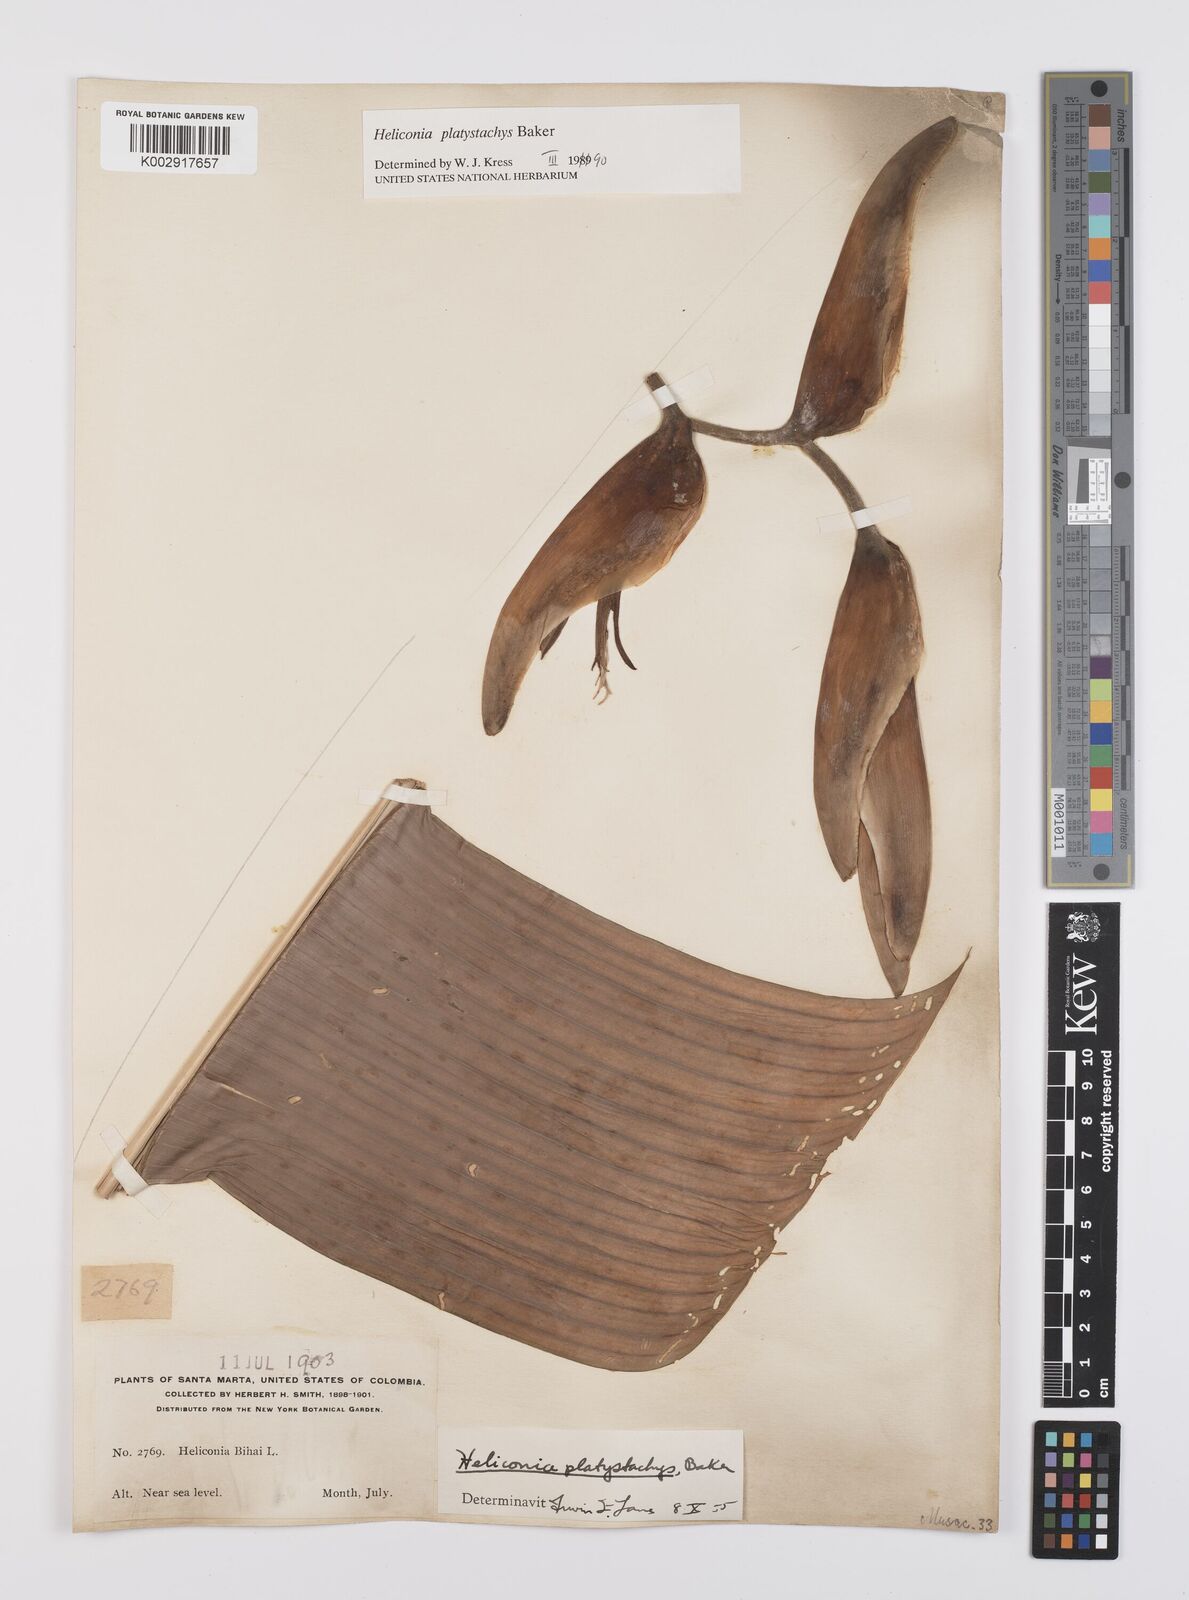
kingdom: Plantae
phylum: Tracheophyta
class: Liliopsida
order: Zingiberales
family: Heliconiaceae
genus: Heliconia
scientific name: Heliconia platystachys
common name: False bird of paradise
